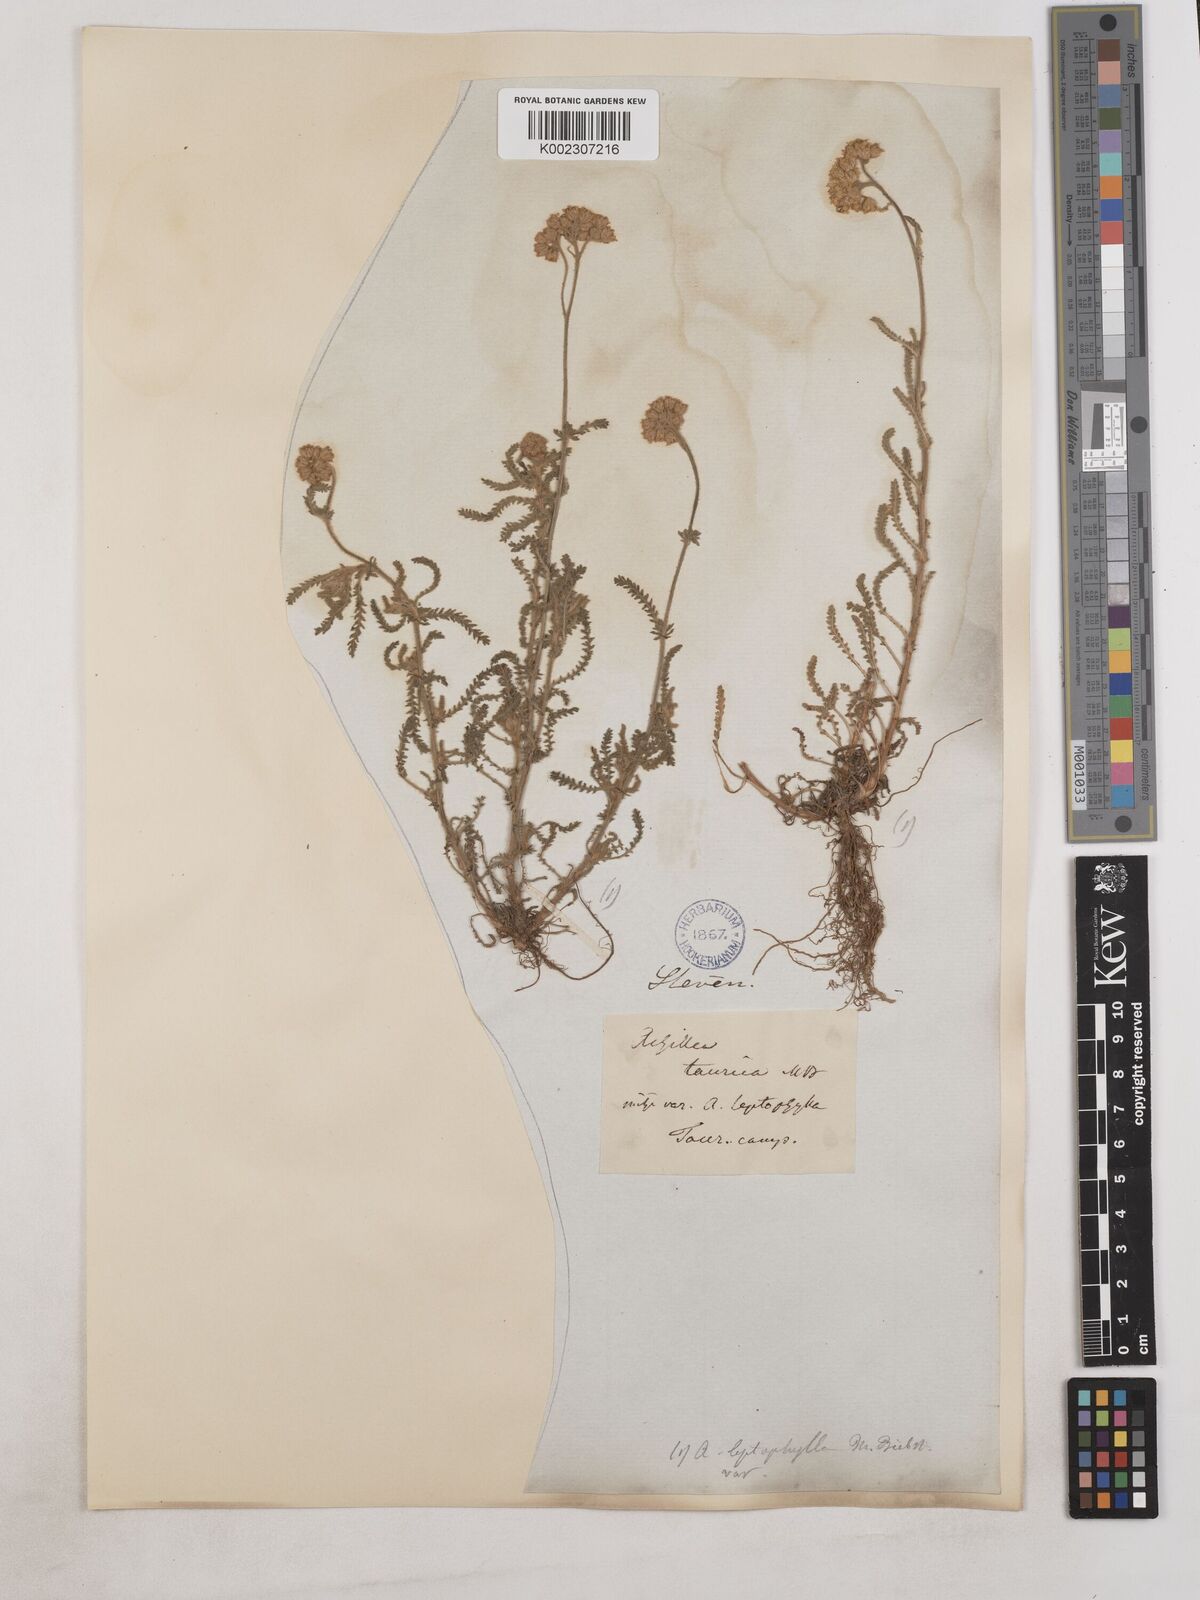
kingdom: Plantae
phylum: Tracheophyta
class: Magnoliopsida
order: Asterales
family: Asteraceae
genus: Achillea
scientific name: Achillea leptophylla
